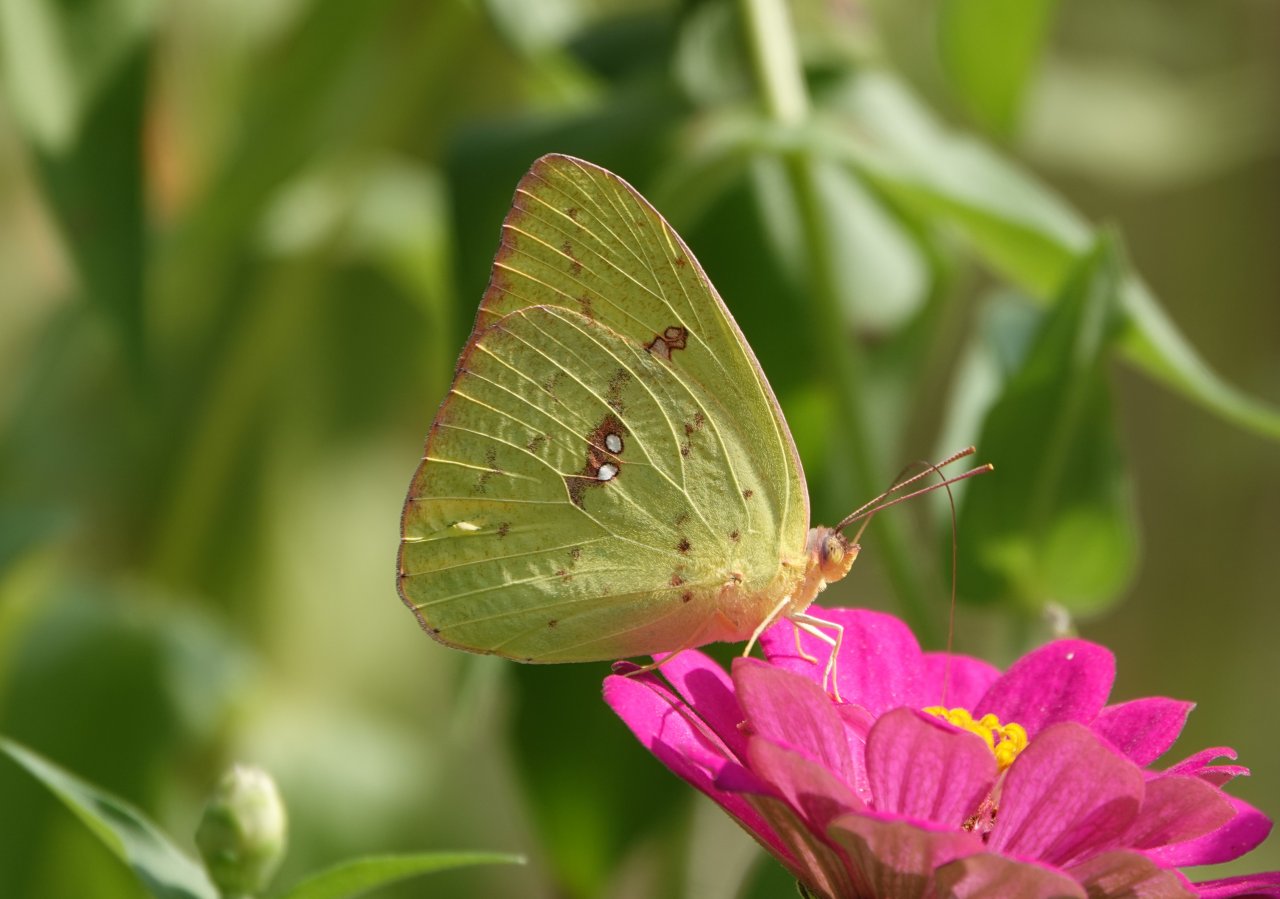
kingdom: Animalia
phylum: Arthropoda
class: Insecta
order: Lepidoptera
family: Pieridae
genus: Phoebis
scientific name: Phoebis sennae
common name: Cloudless Sulphur
